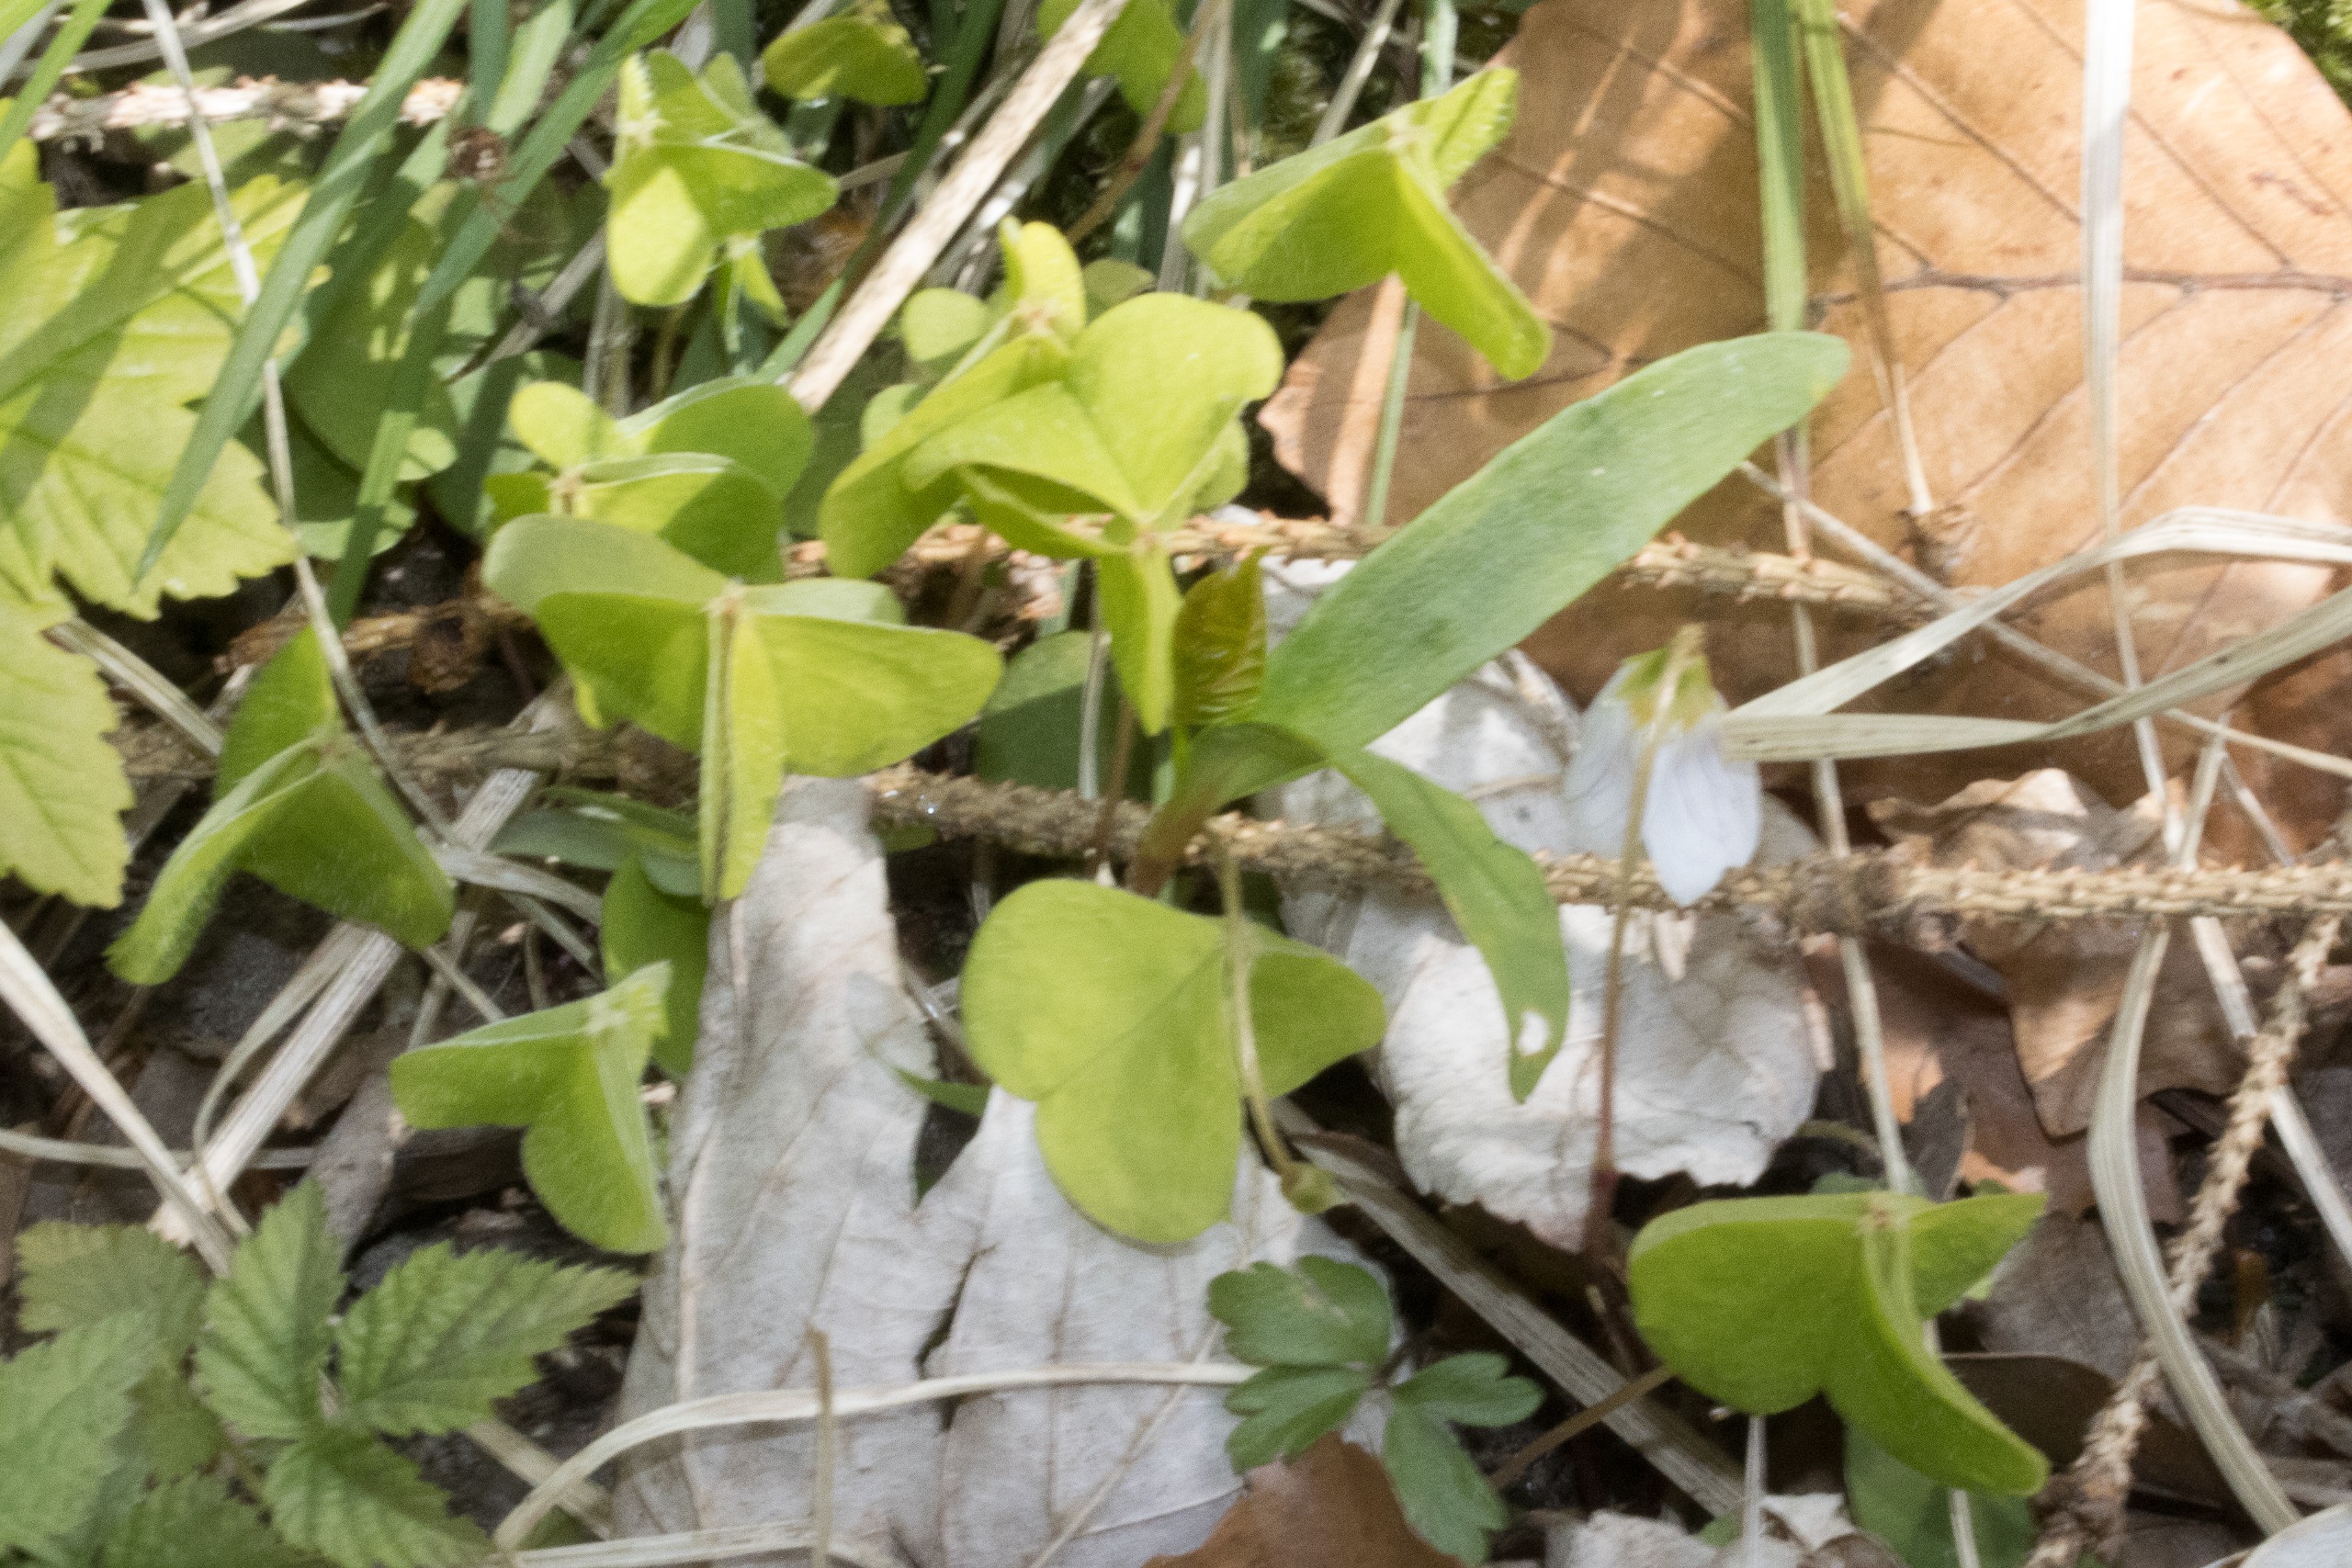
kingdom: Plantae
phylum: Tracheophyta
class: Magnoliopsida
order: Oxalidales
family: Oxalidaceae
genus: Oxalis
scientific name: Oxalis acetosella
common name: Skovsyre
